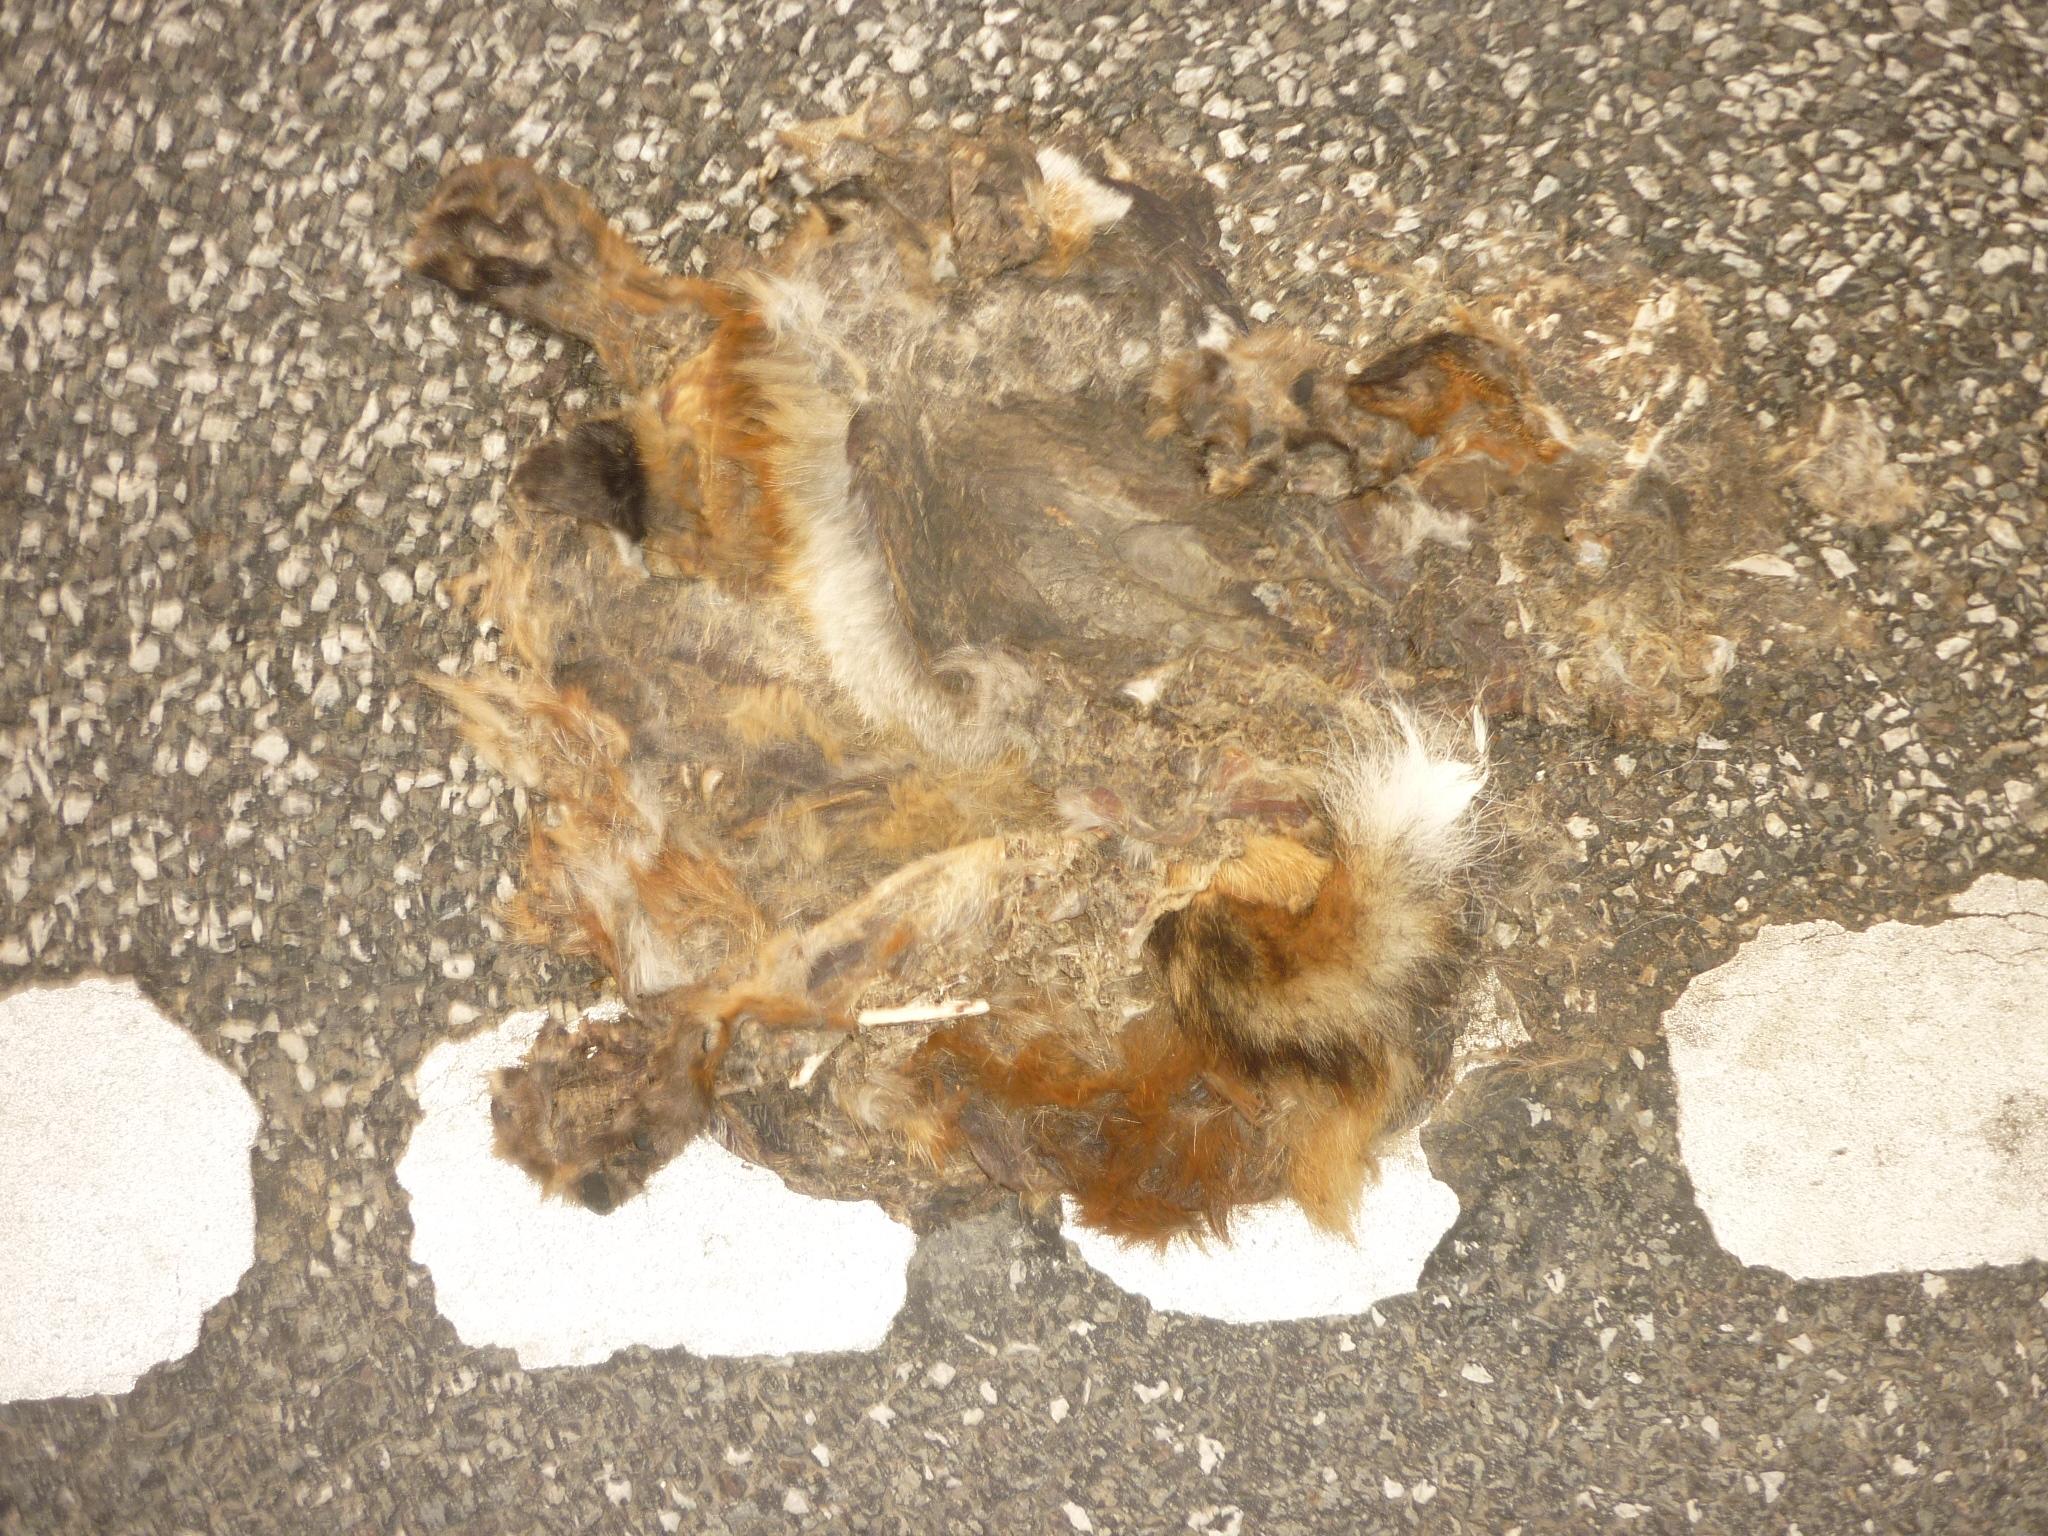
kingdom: Animalia
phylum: Chordata
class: Mammalia
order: Carnivora
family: Canidae
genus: Vulpes
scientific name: Vulpes vulpes
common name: Red fox
